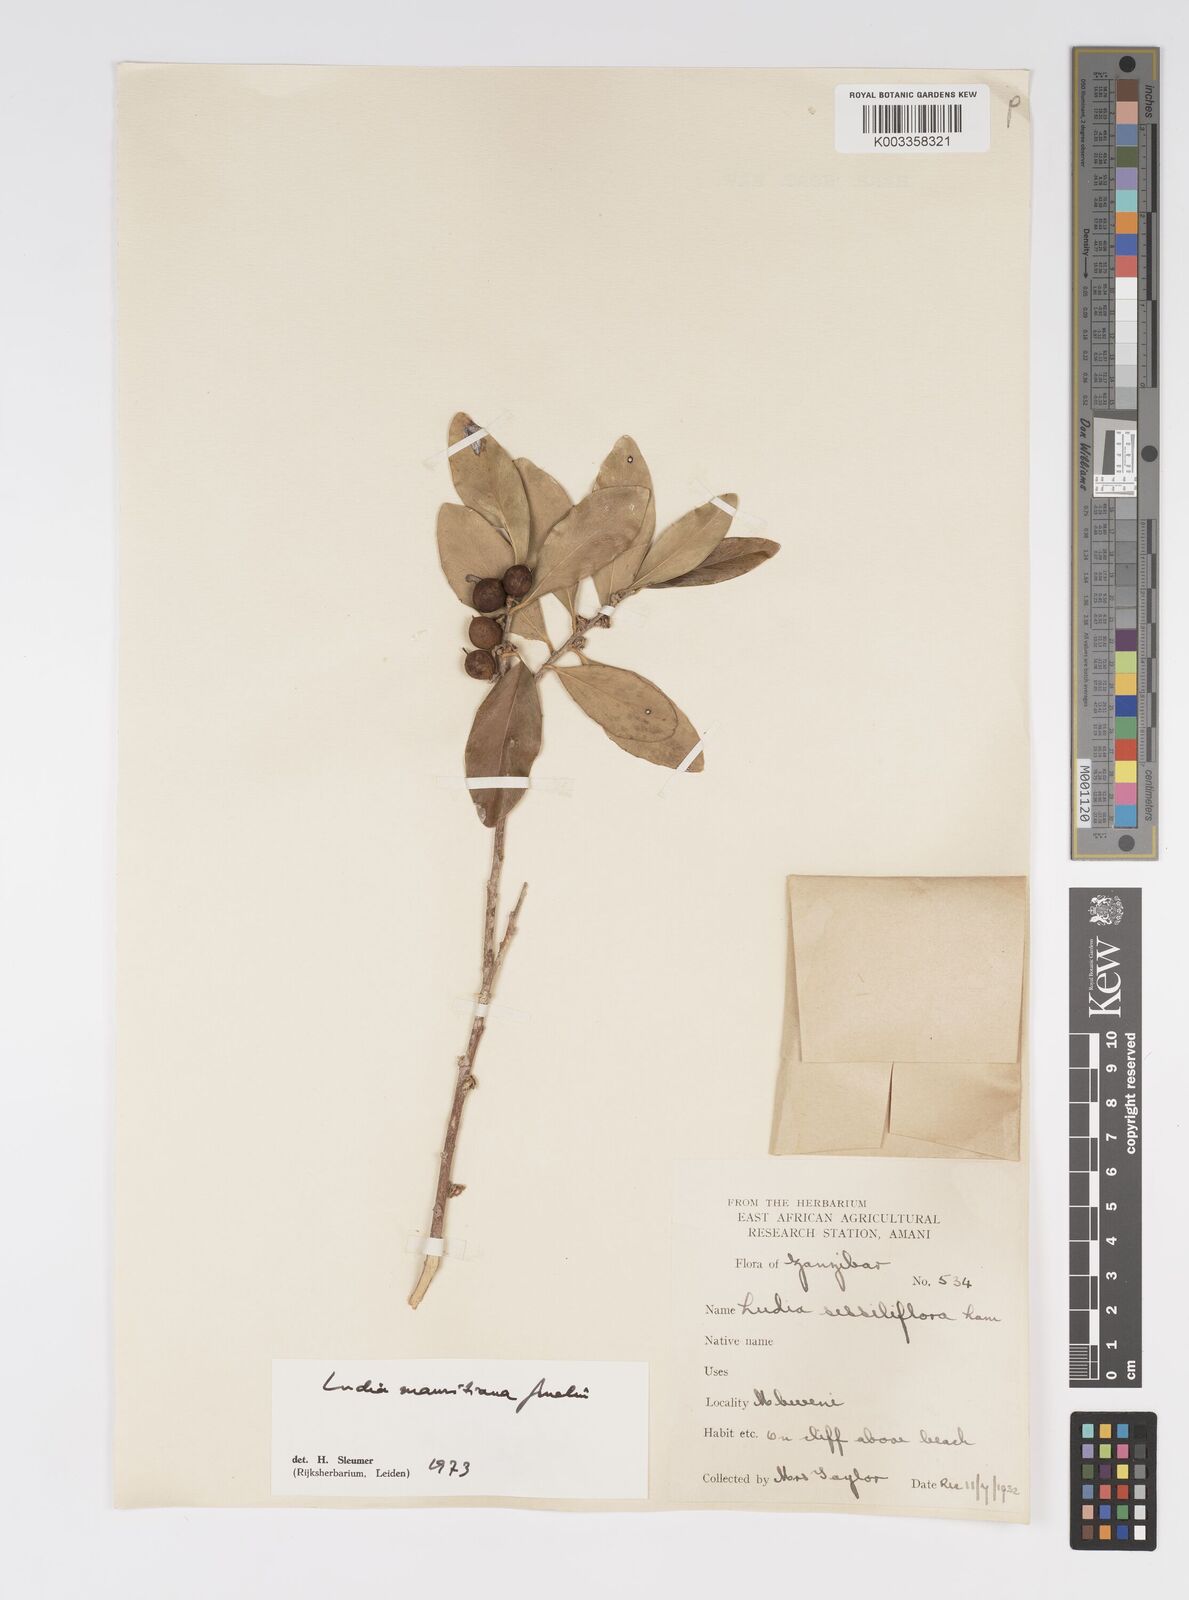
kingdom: Plantae
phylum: Tracheophyta
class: Magnoliopsida
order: Malpighiales
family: Salicaceae
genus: Ludia
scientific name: Ludia mauritiana
